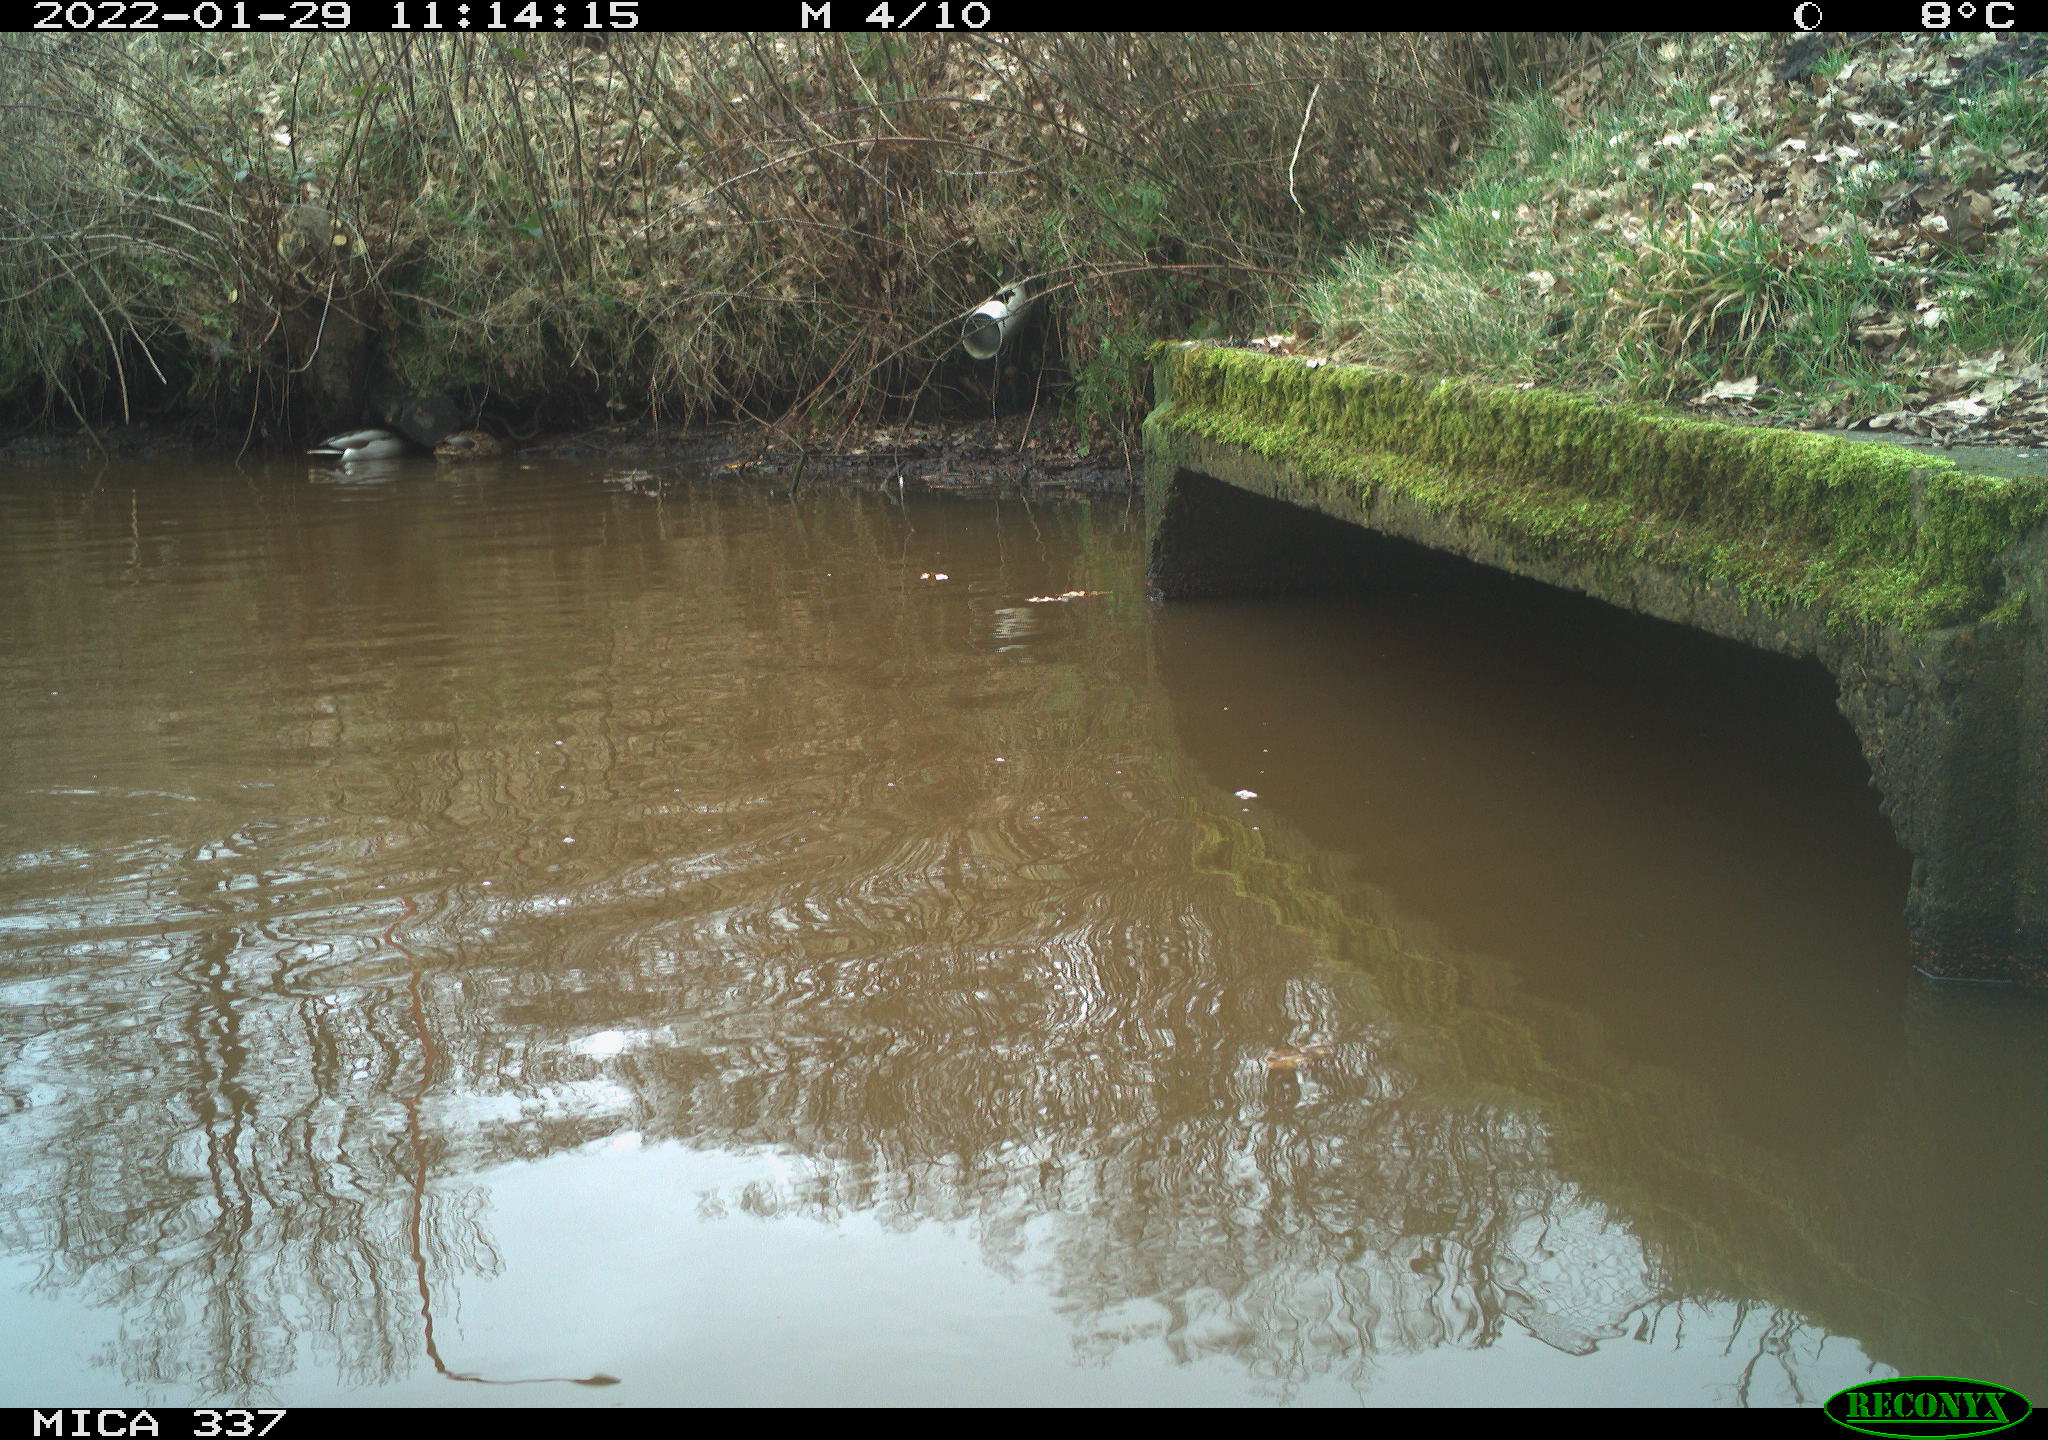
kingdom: Animalia
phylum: Chordata
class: Aves
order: Anseriformes
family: Anatidae
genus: Anas
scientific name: Anas platyrhynchos
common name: Mallard
